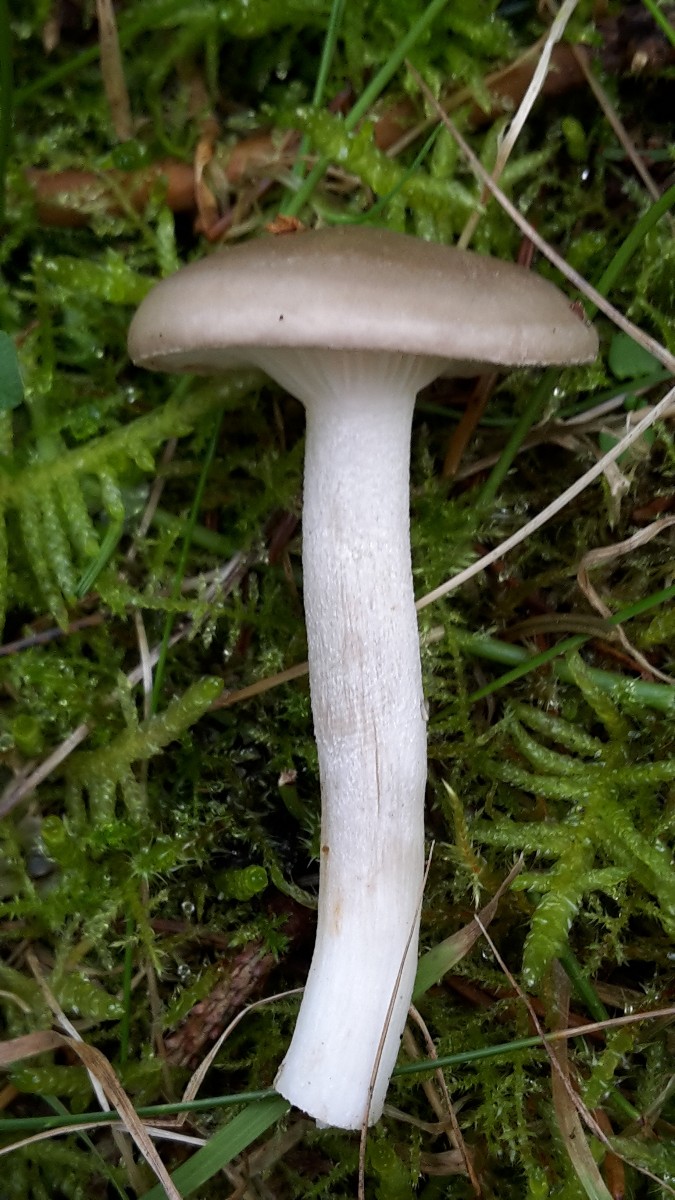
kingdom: Fungi
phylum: Basidiomycota
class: Agaricomycetes
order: Agaricales
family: Hygrophoraceae
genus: Hygrophorus
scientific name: Hygrophorus agathosmus
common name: vellugtende sneglehat
